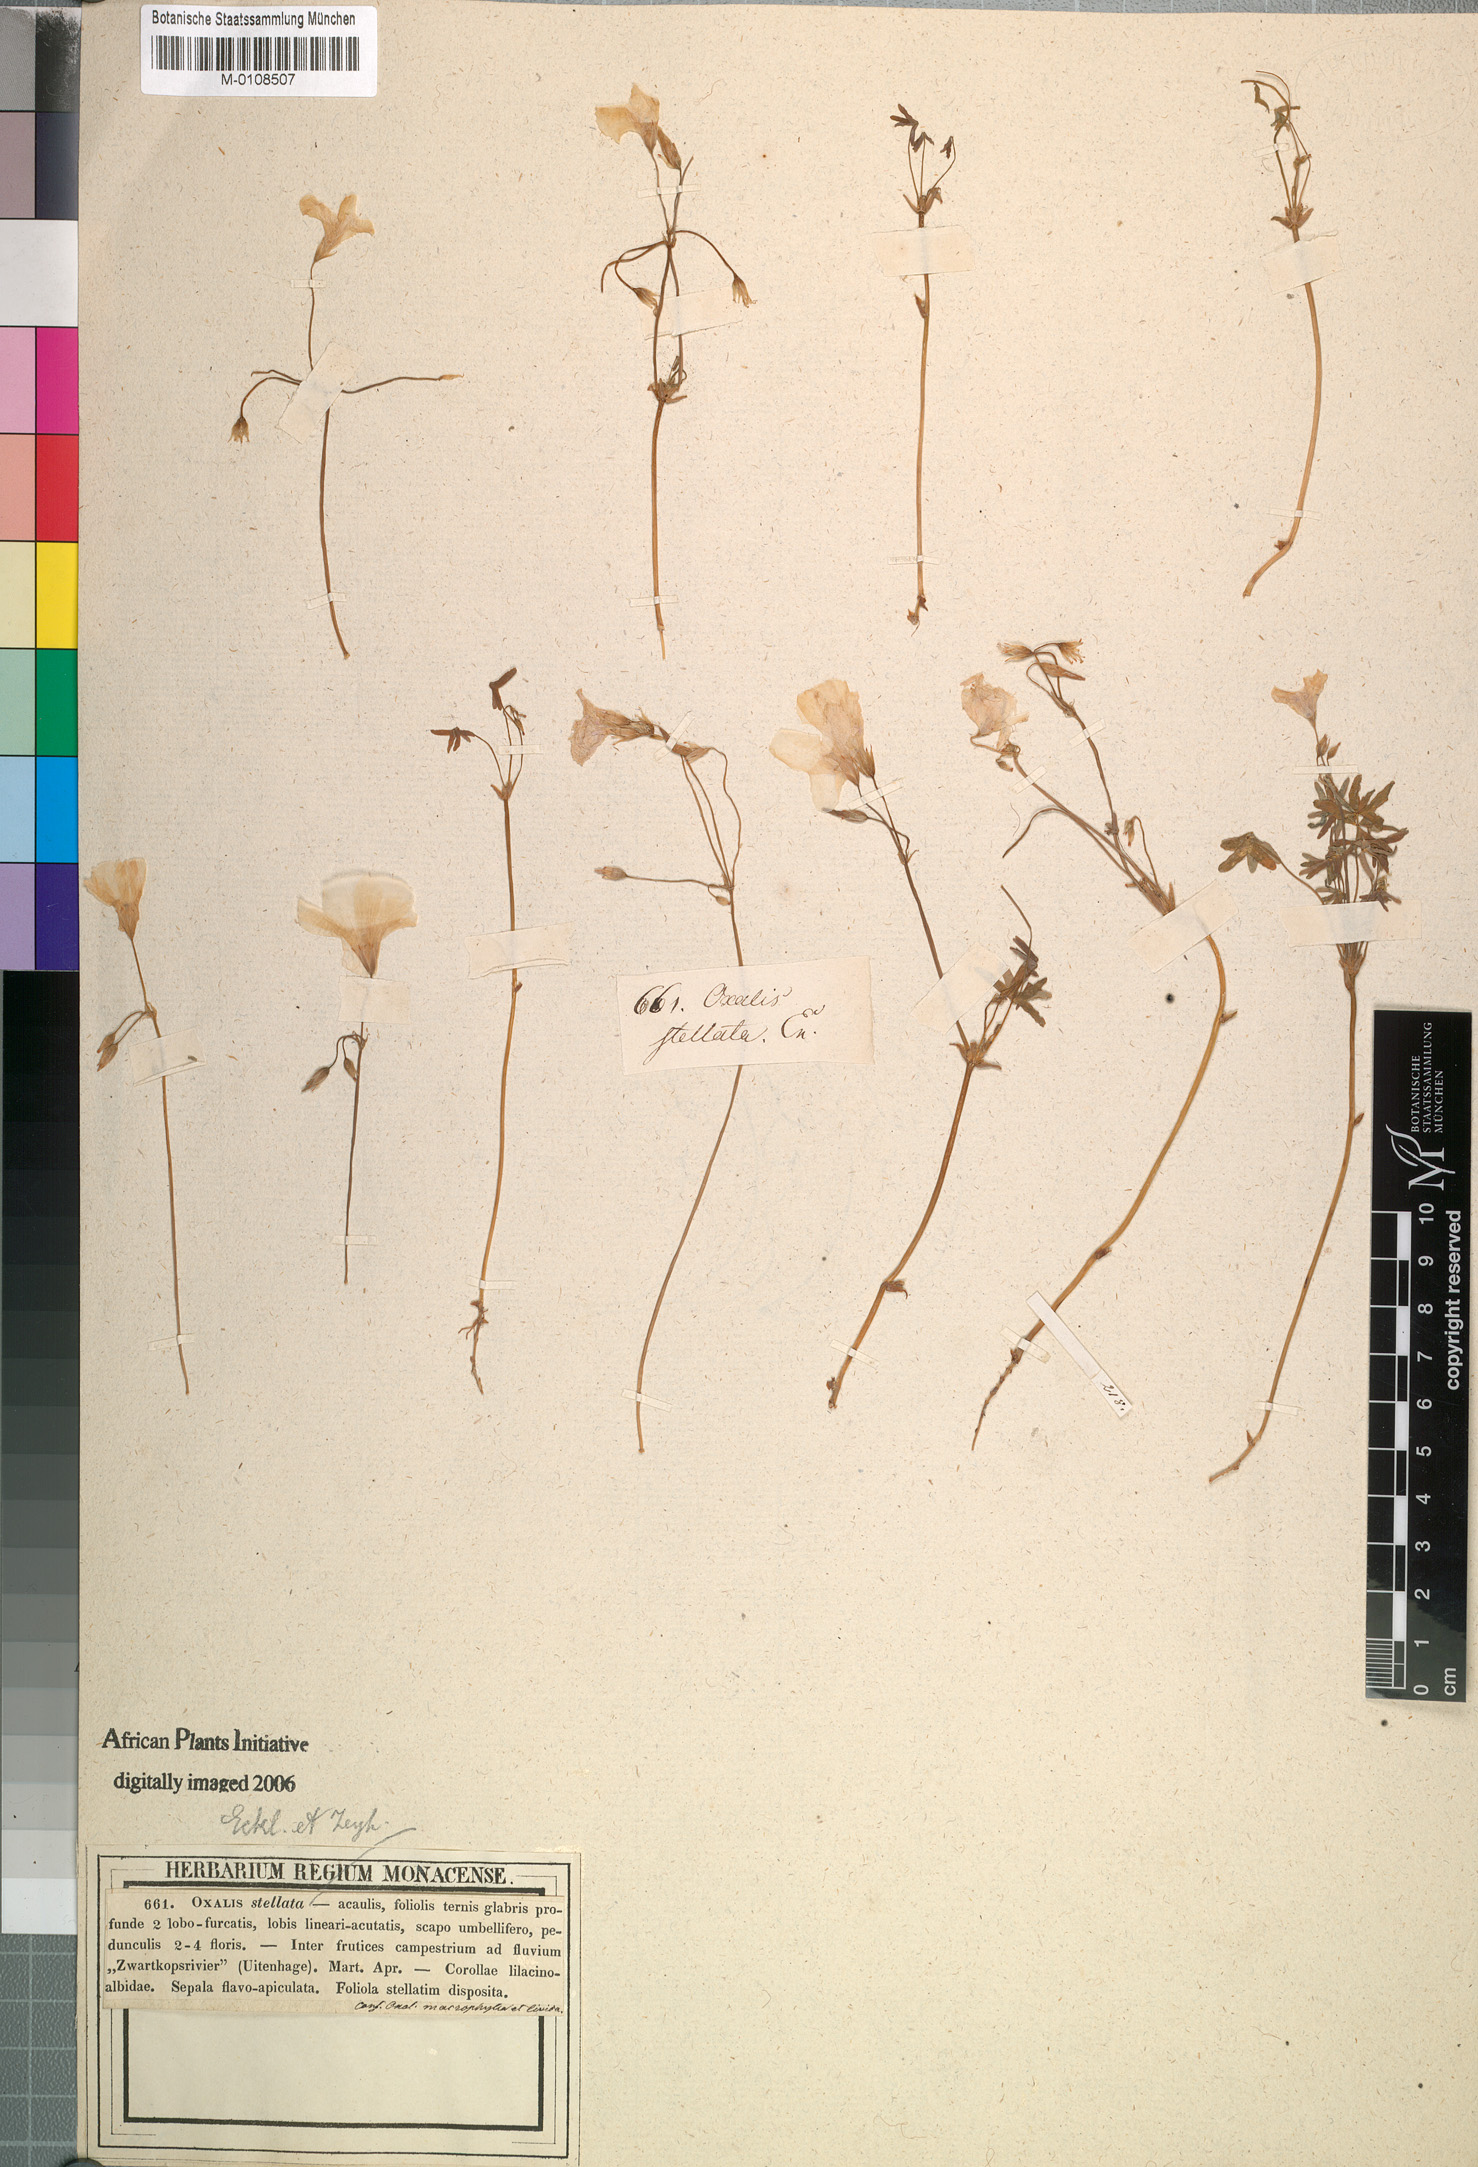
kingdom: Plantae
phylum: Tracheophyta
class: Magnoliopsida
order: Oxalidales
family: Oxalidaceae
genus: Oxalis
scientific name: Oxalis stellata
